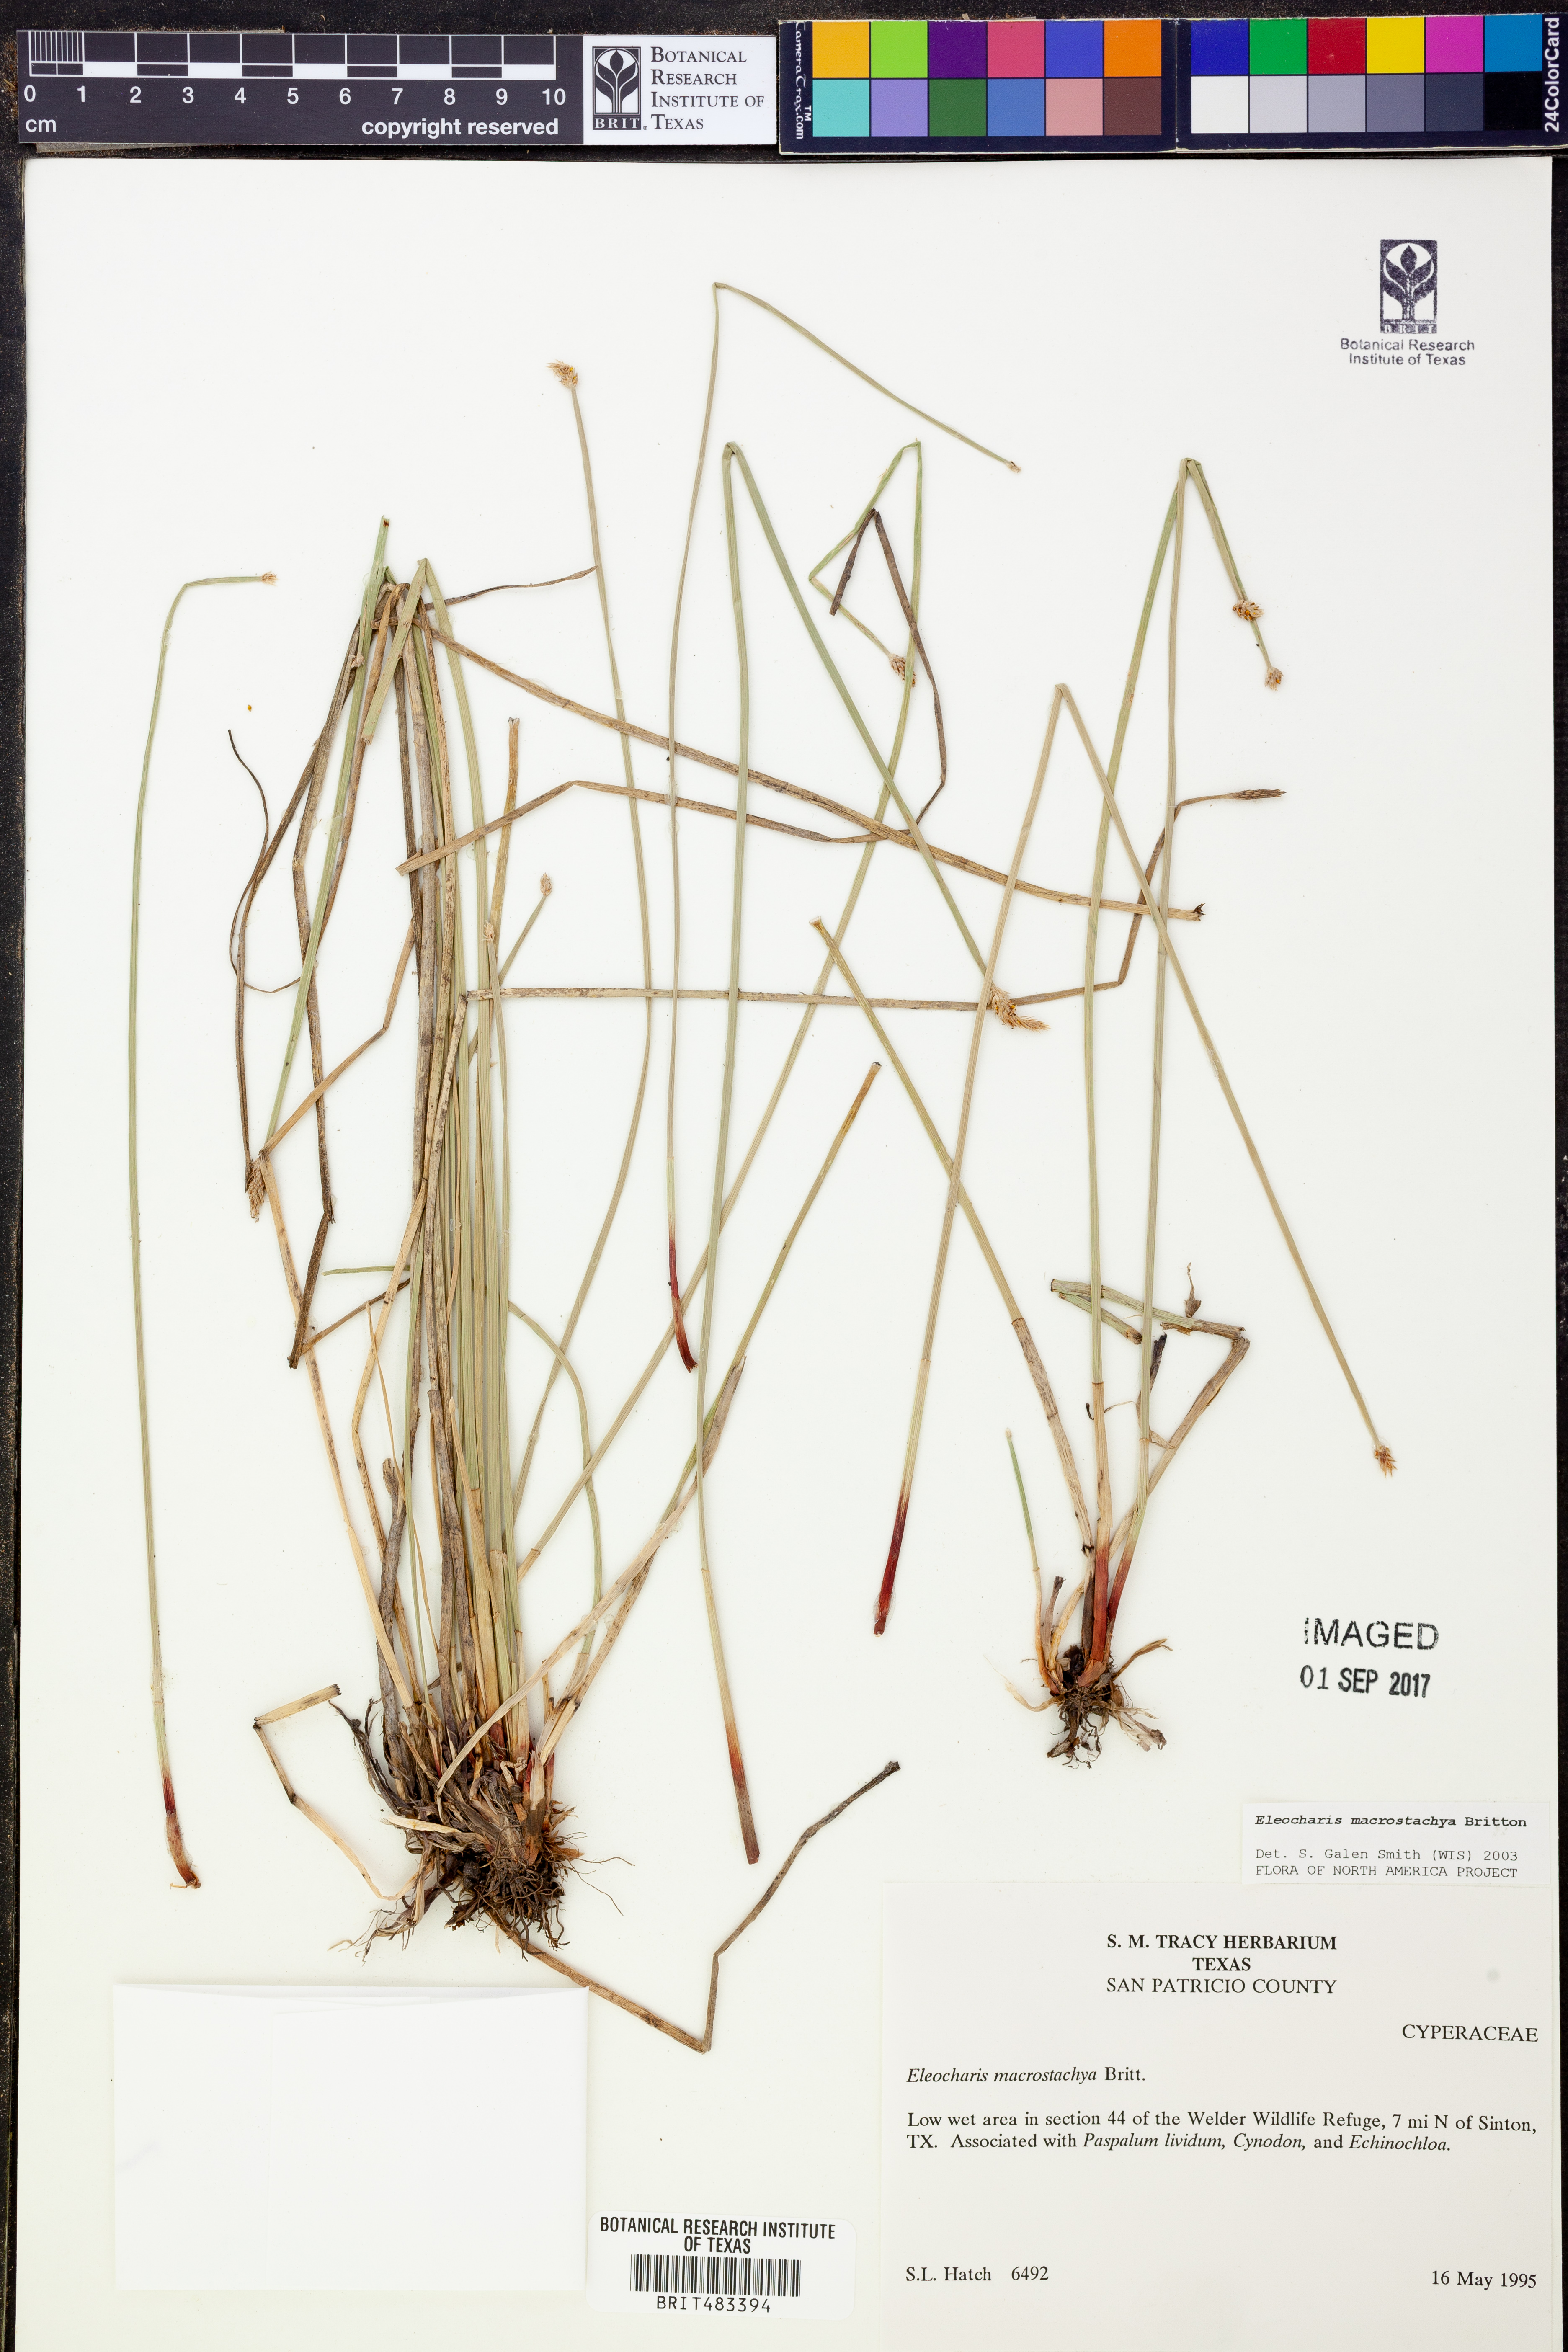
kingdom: Plantae
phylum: Tracheophyta
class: Liliopsida
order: Poales
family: Cyperaceae
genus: Eleocharis
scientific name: Eleocharis macrostachya
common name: Pale spikerush
